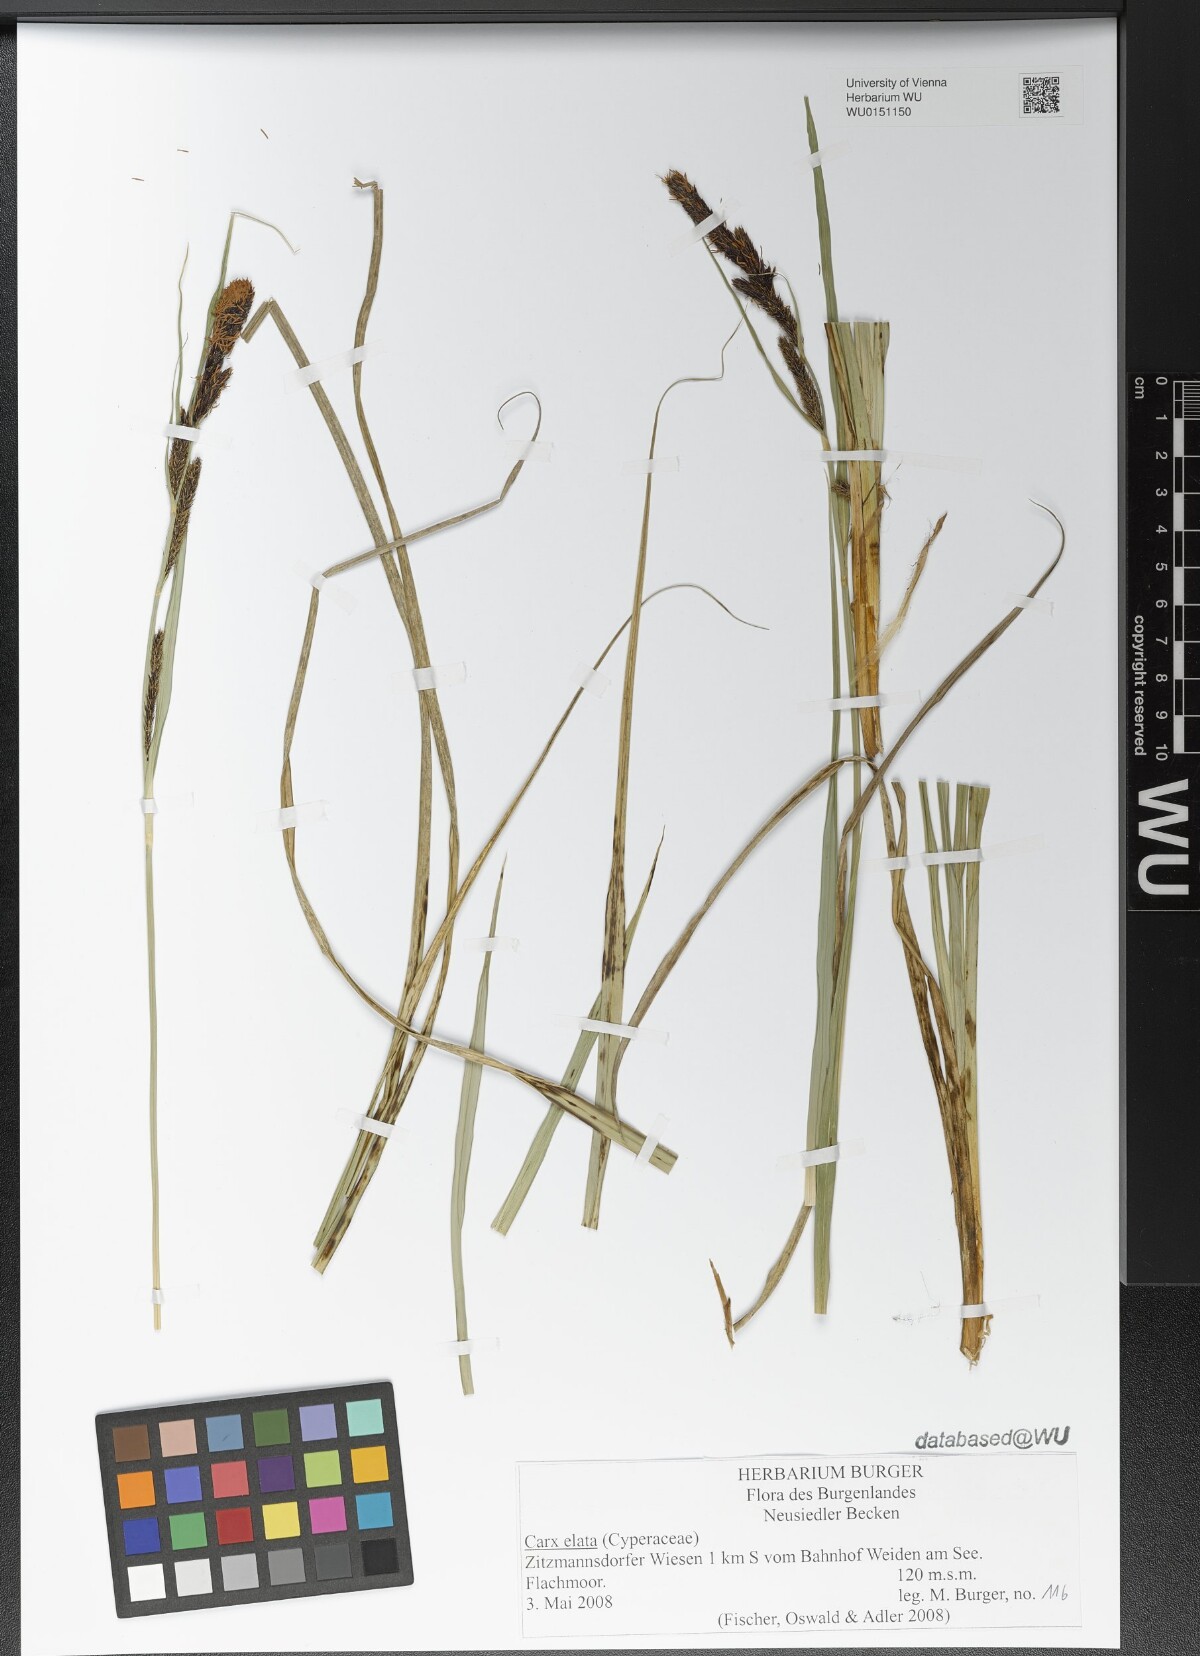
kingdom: Plantae
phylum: Tracheophyta
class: Liliopsida
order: Poales
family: Cyperaceae
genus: Carex
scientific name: Carex elata
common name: Tufted sedge
